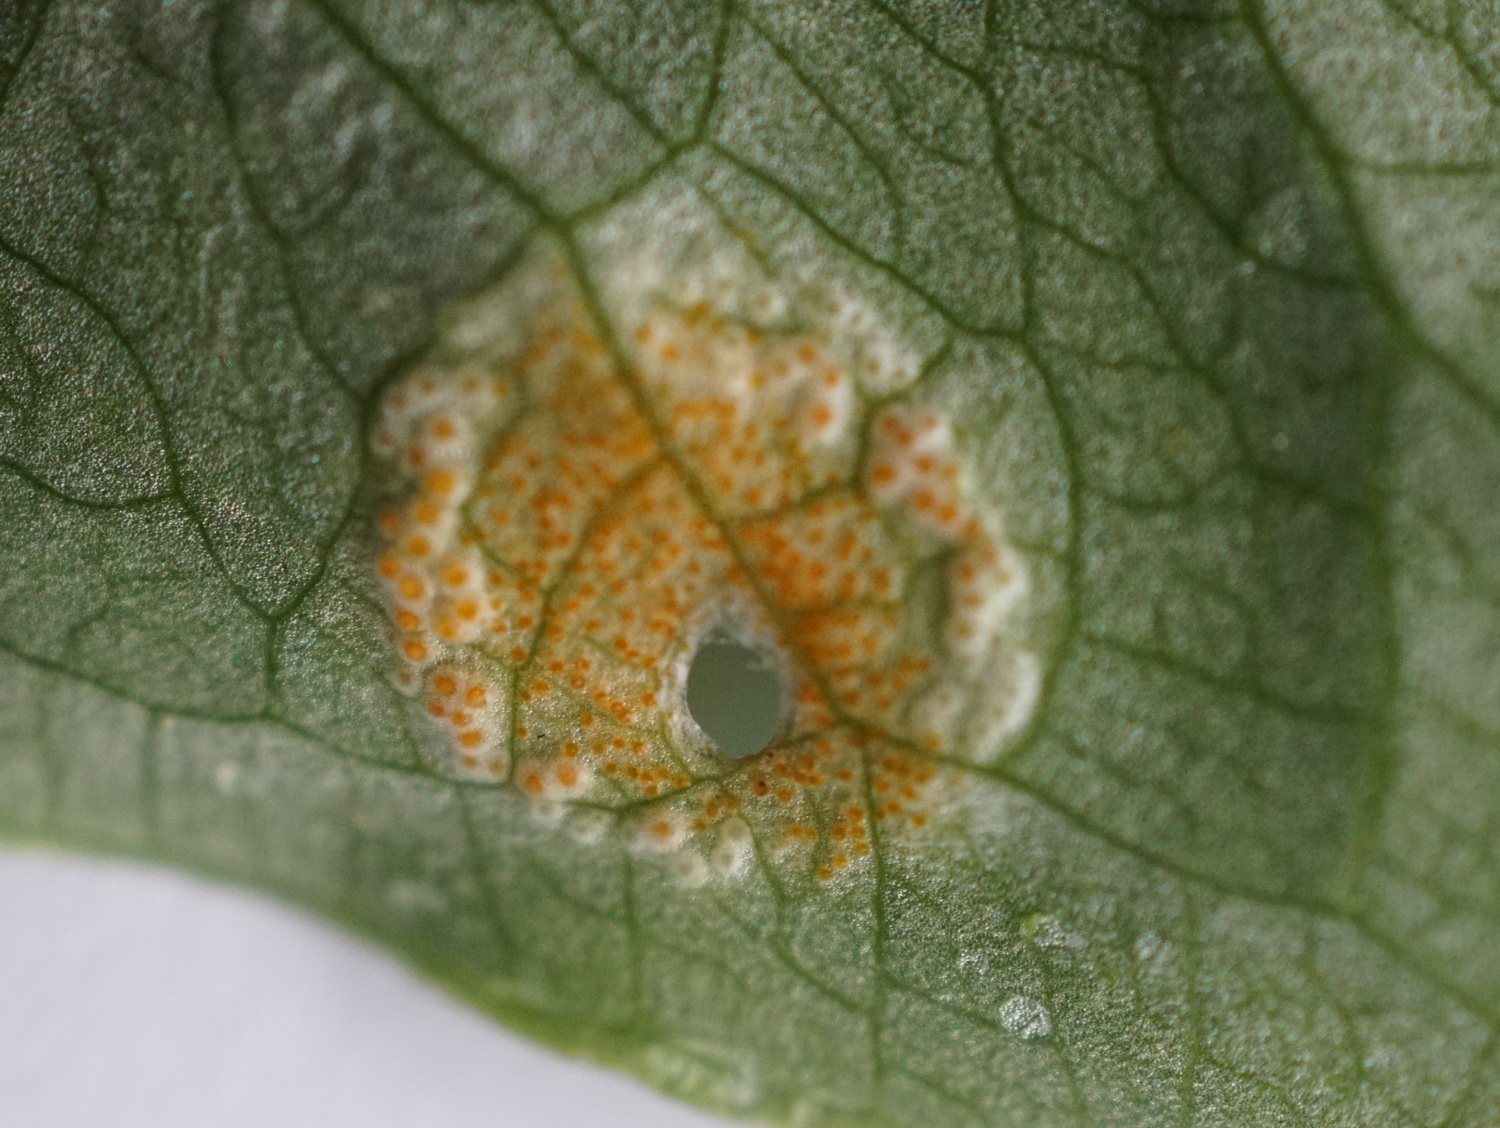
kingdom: Fungi
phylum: Basidiomycota
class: Pucciniomycetes
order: Pucciniales
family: Pucciniaceae
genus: Puccinia
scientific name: Puccinia sessilis
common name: Arum rust
